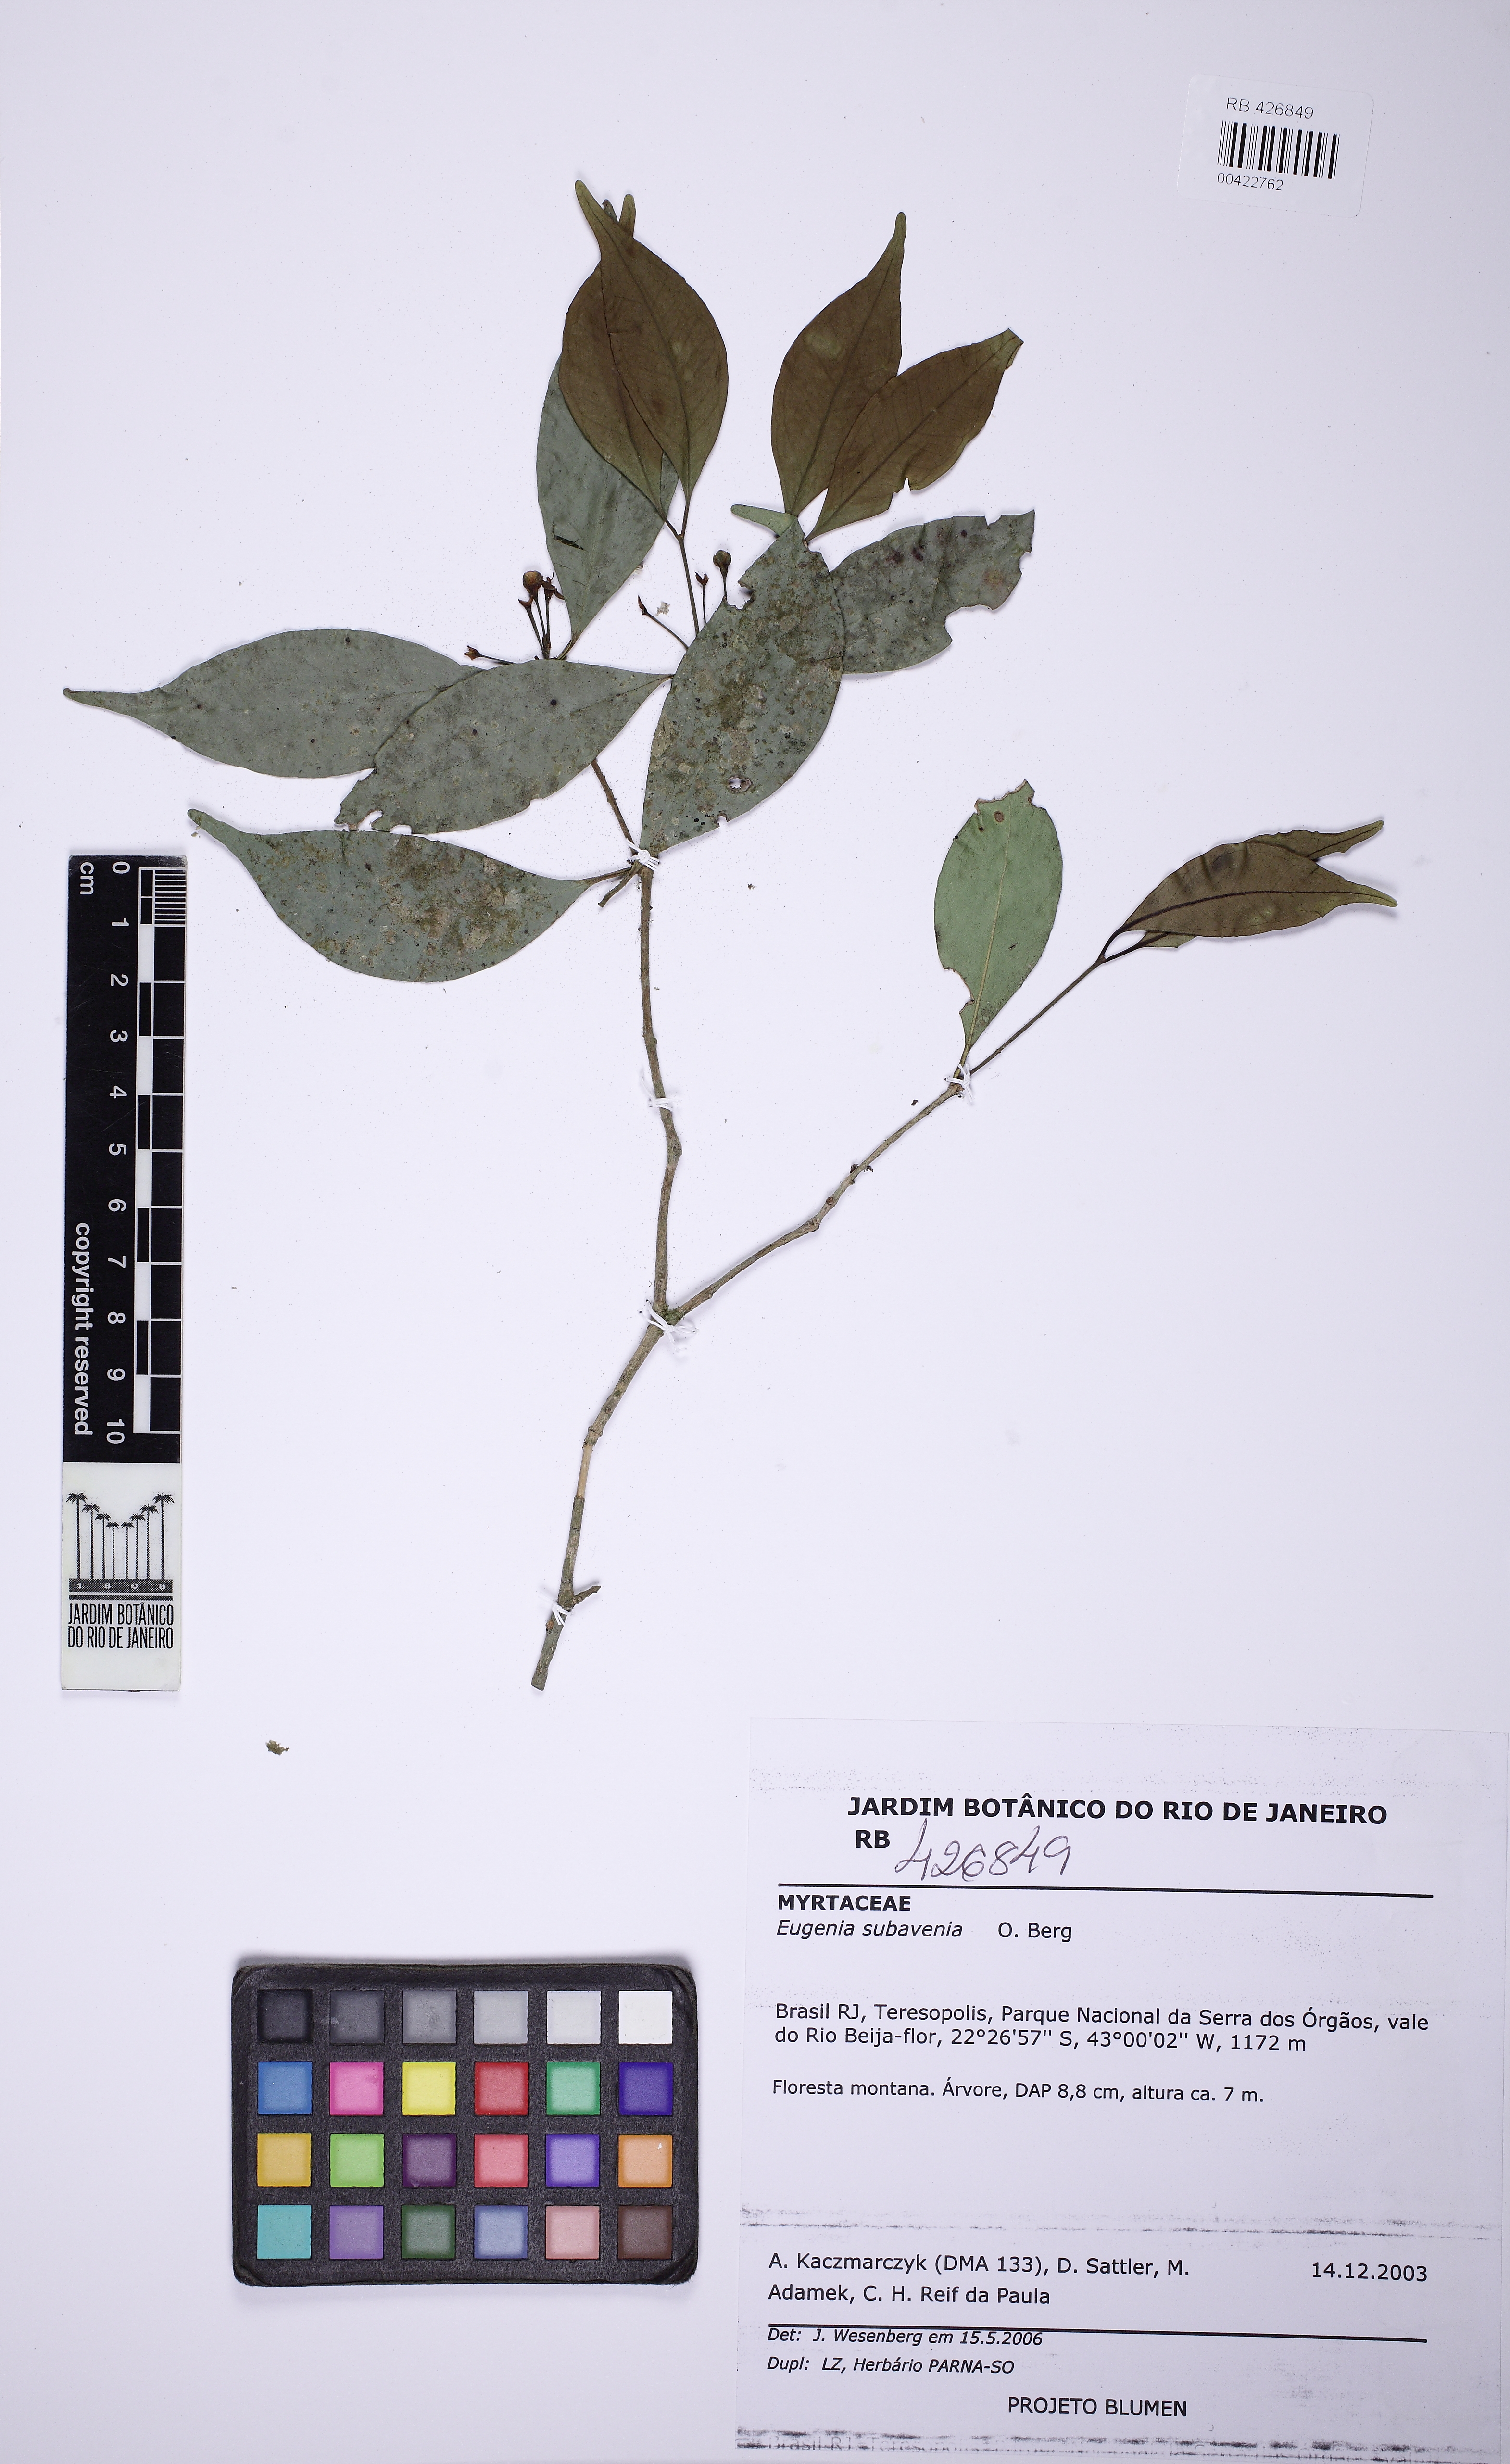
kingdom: Plantae
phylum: Tracheophyta
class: Magnoliopsida
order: Myrtales
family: Myrtaceae
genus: Eugenia
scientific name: Eugenia subavenia
